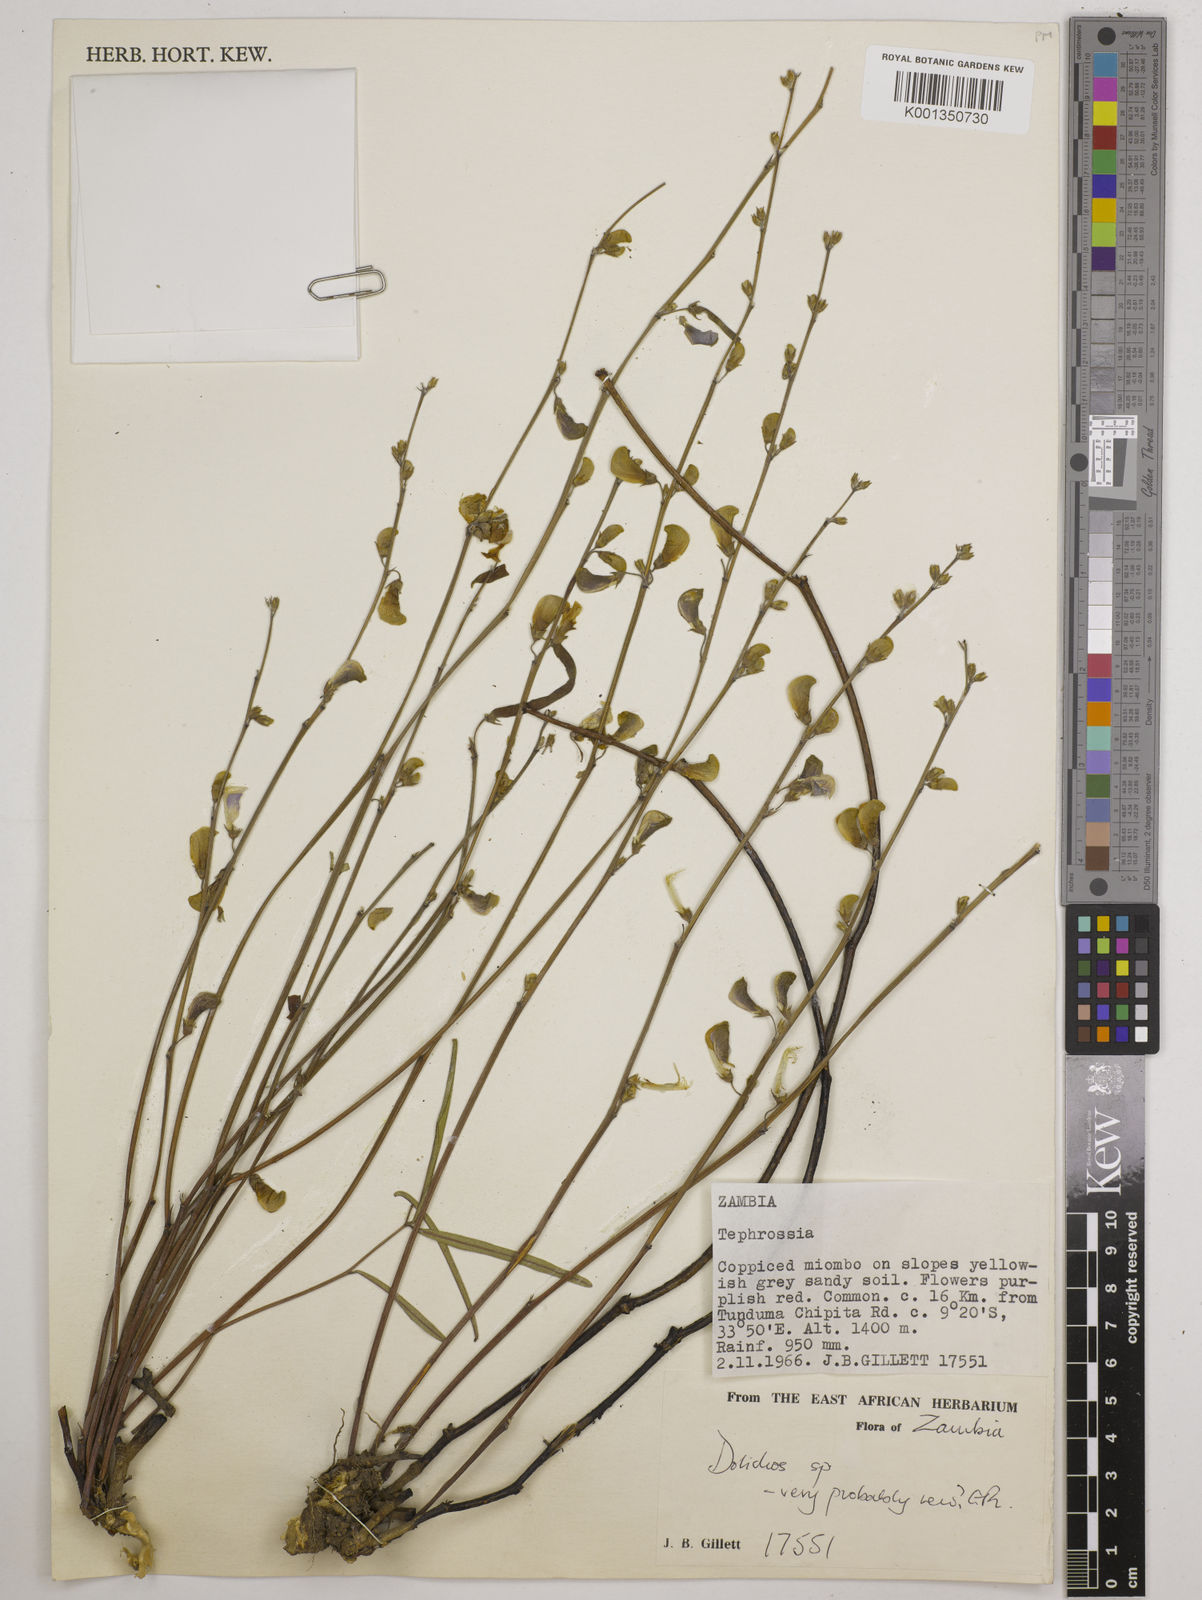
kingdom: Plantae
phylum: Tracheophyta
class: Magnoliopsida
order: Fabales
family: Fabaceae
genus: Dolichos
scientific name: Dolichos
